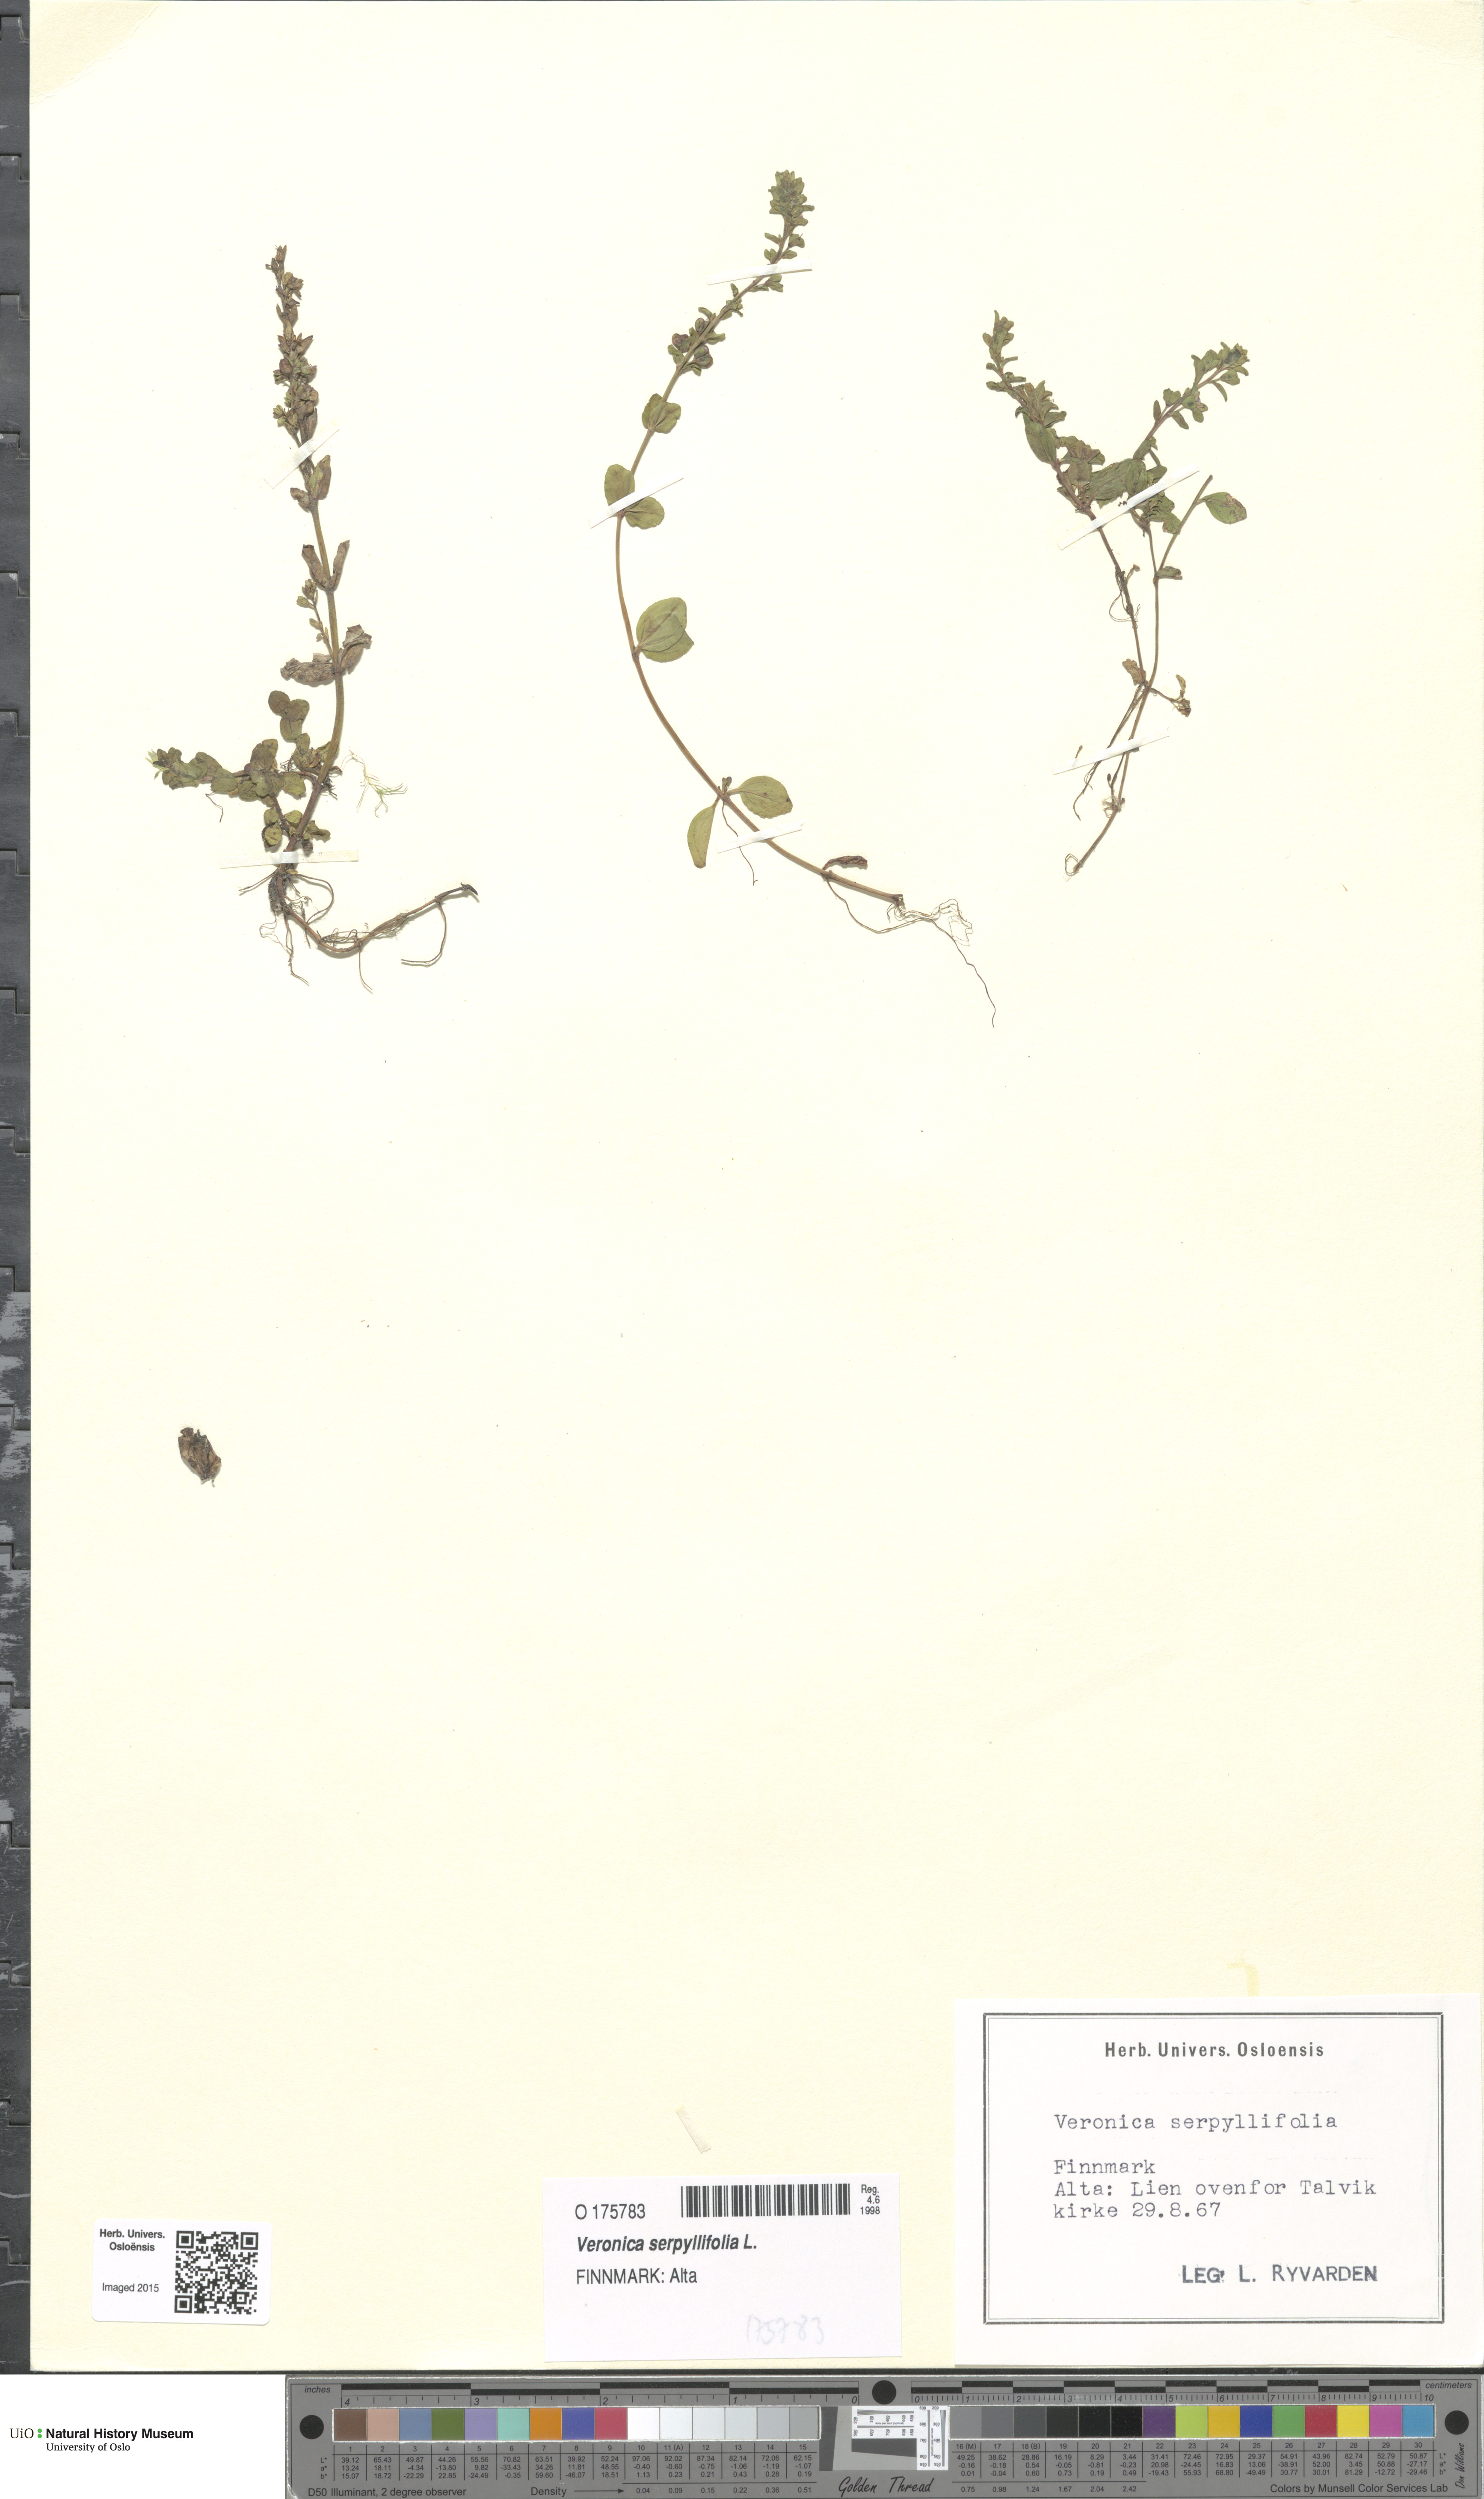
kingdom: Plantae
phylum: Tracheophyta
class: Magnoliopsida
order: Lamiales
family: Plantaginaceae
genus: Veronica
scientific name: Veronica serpyllifolia
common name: Thyme-leaved speedwell
